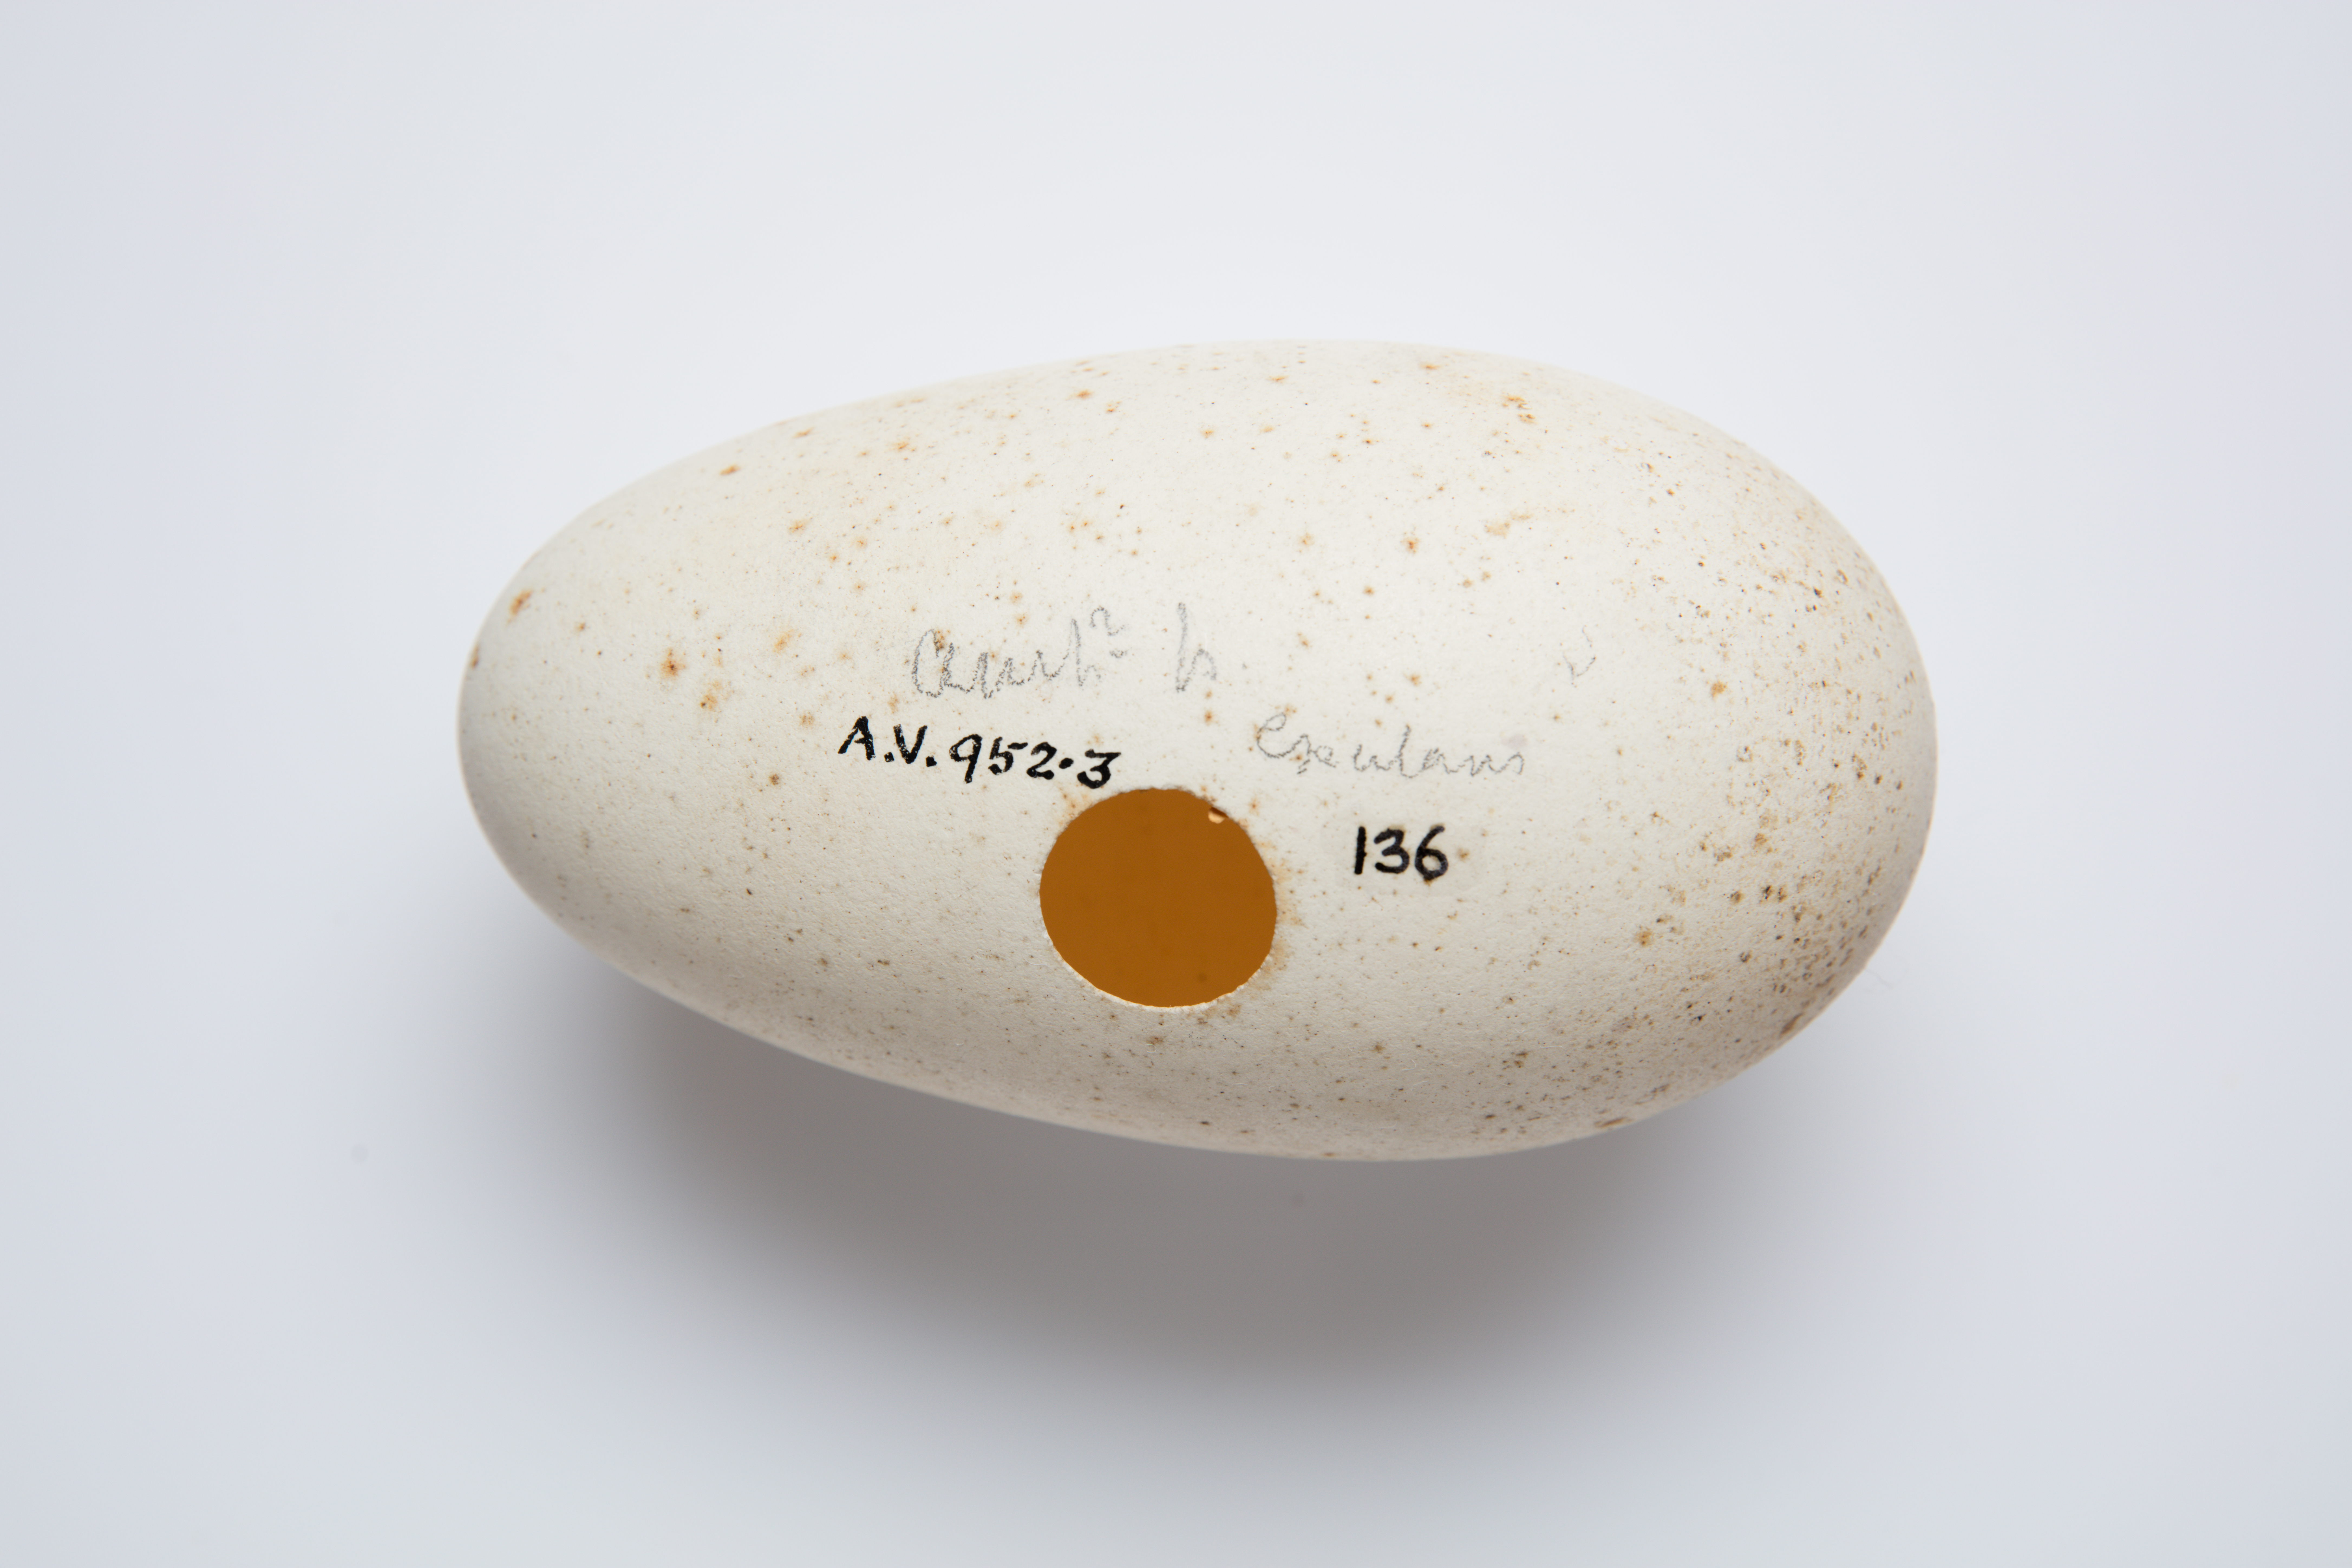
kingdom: Animalia
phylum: Chordata
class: Aves
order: Procellariiformes
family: Diomedeidae
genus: Diomedea
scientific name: Diomedea antipodensis
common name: Antipodean albatross
